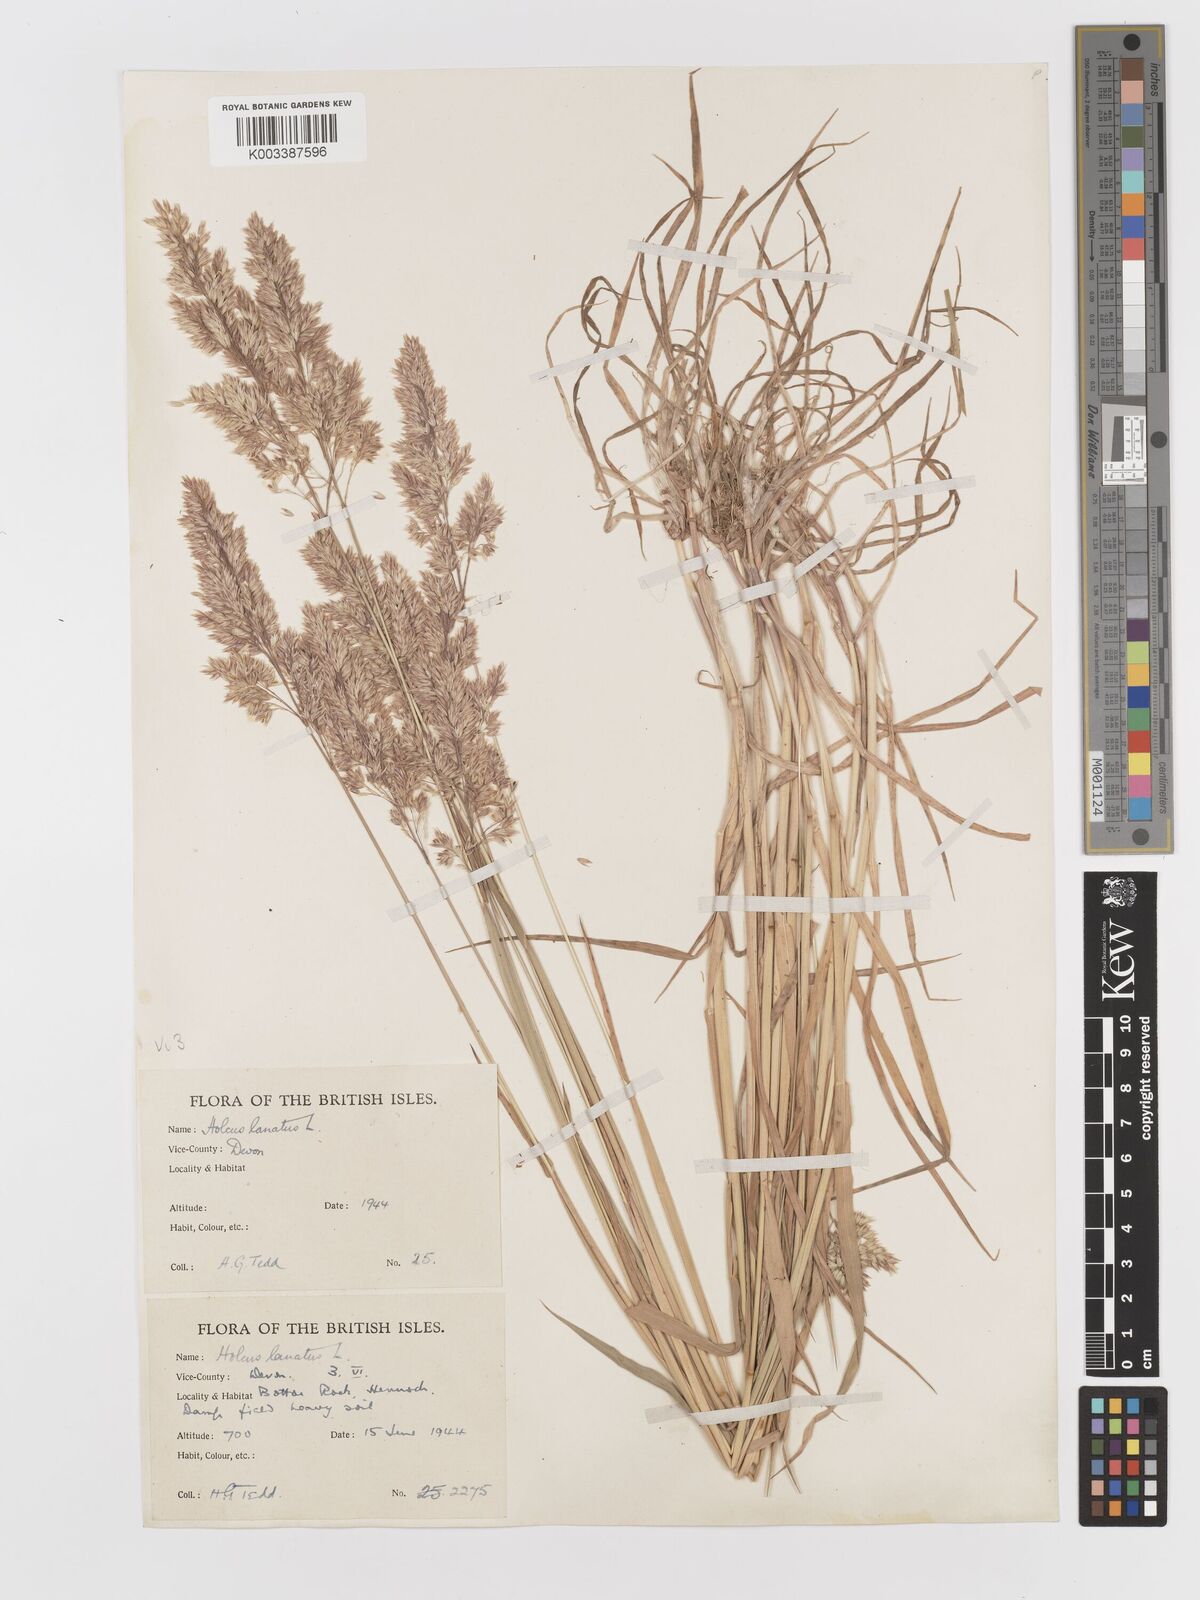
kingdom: Plantae
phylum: Tracheophyta
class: Liliopsida
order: Poales
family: Poaceae
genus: Holcus
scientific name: Holcus lanatus
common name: Yorkshire-fog
